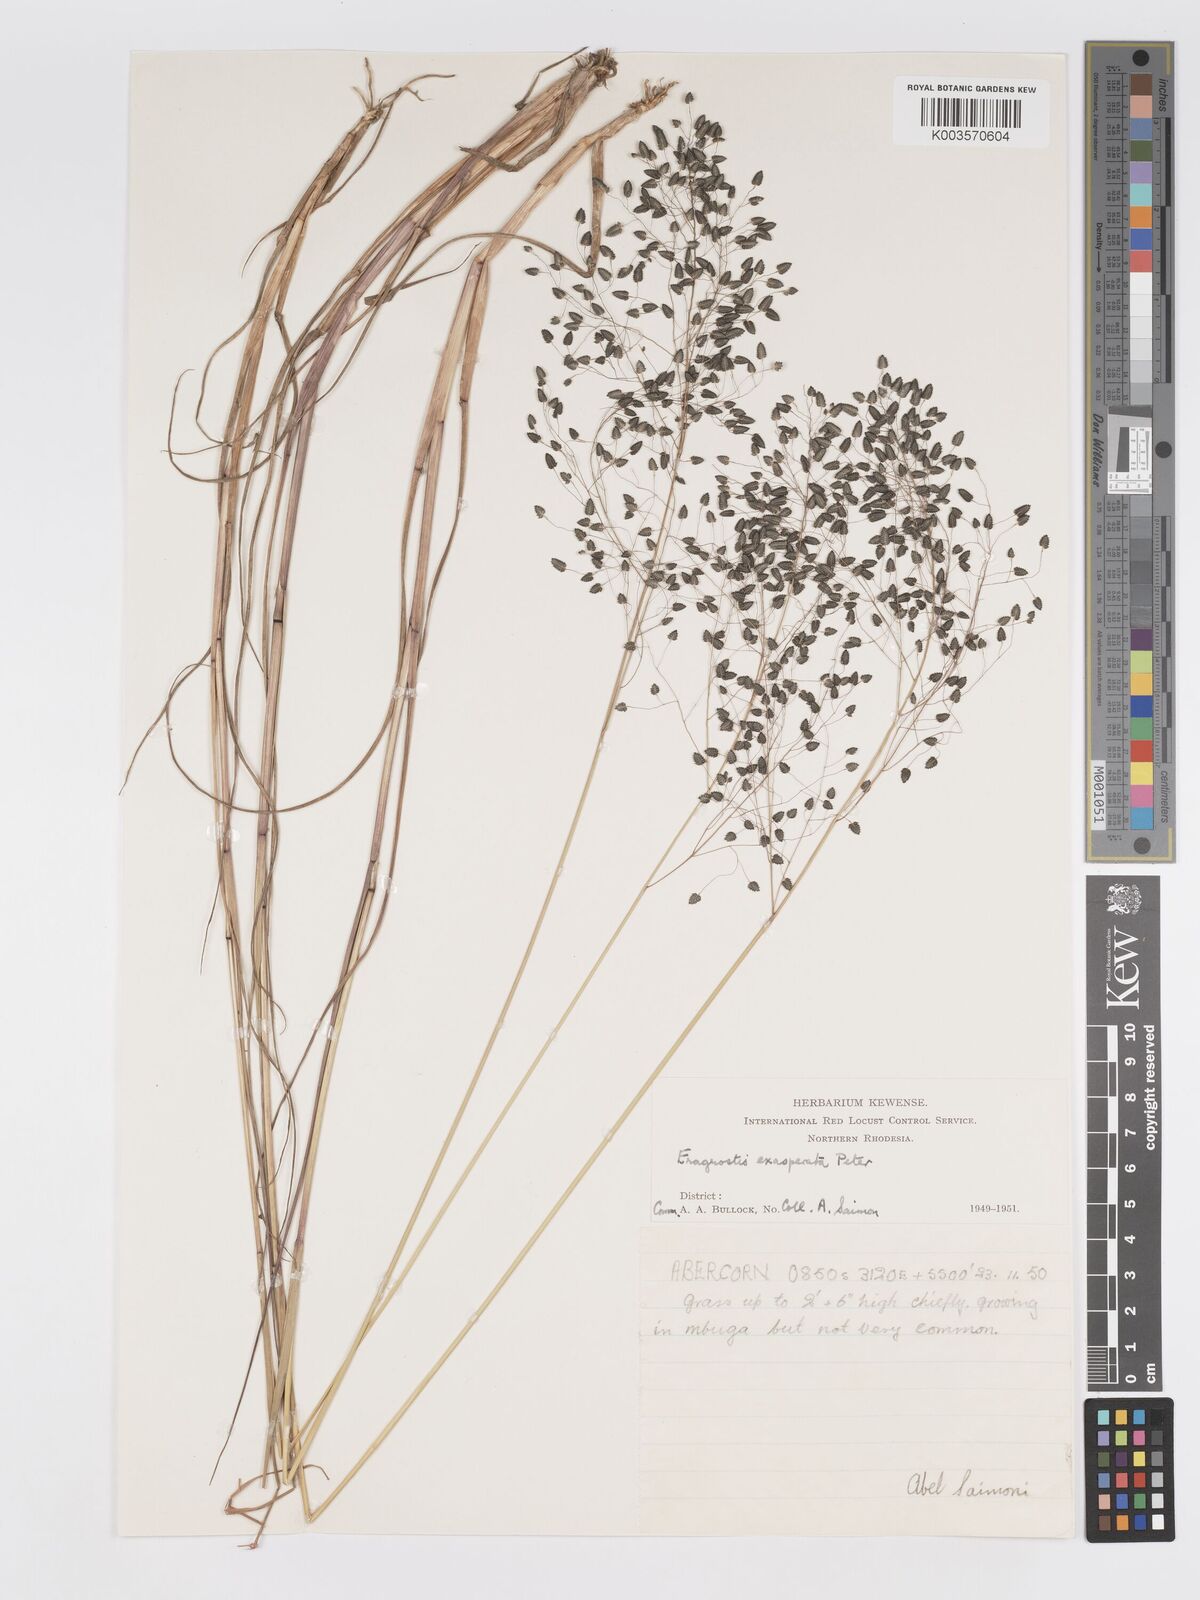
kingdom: Plantae
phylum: Tracheophyta
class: Liliopsida
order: Poales
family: Poaceae
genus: Eragrostis
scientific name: Eragrostis exasperata
